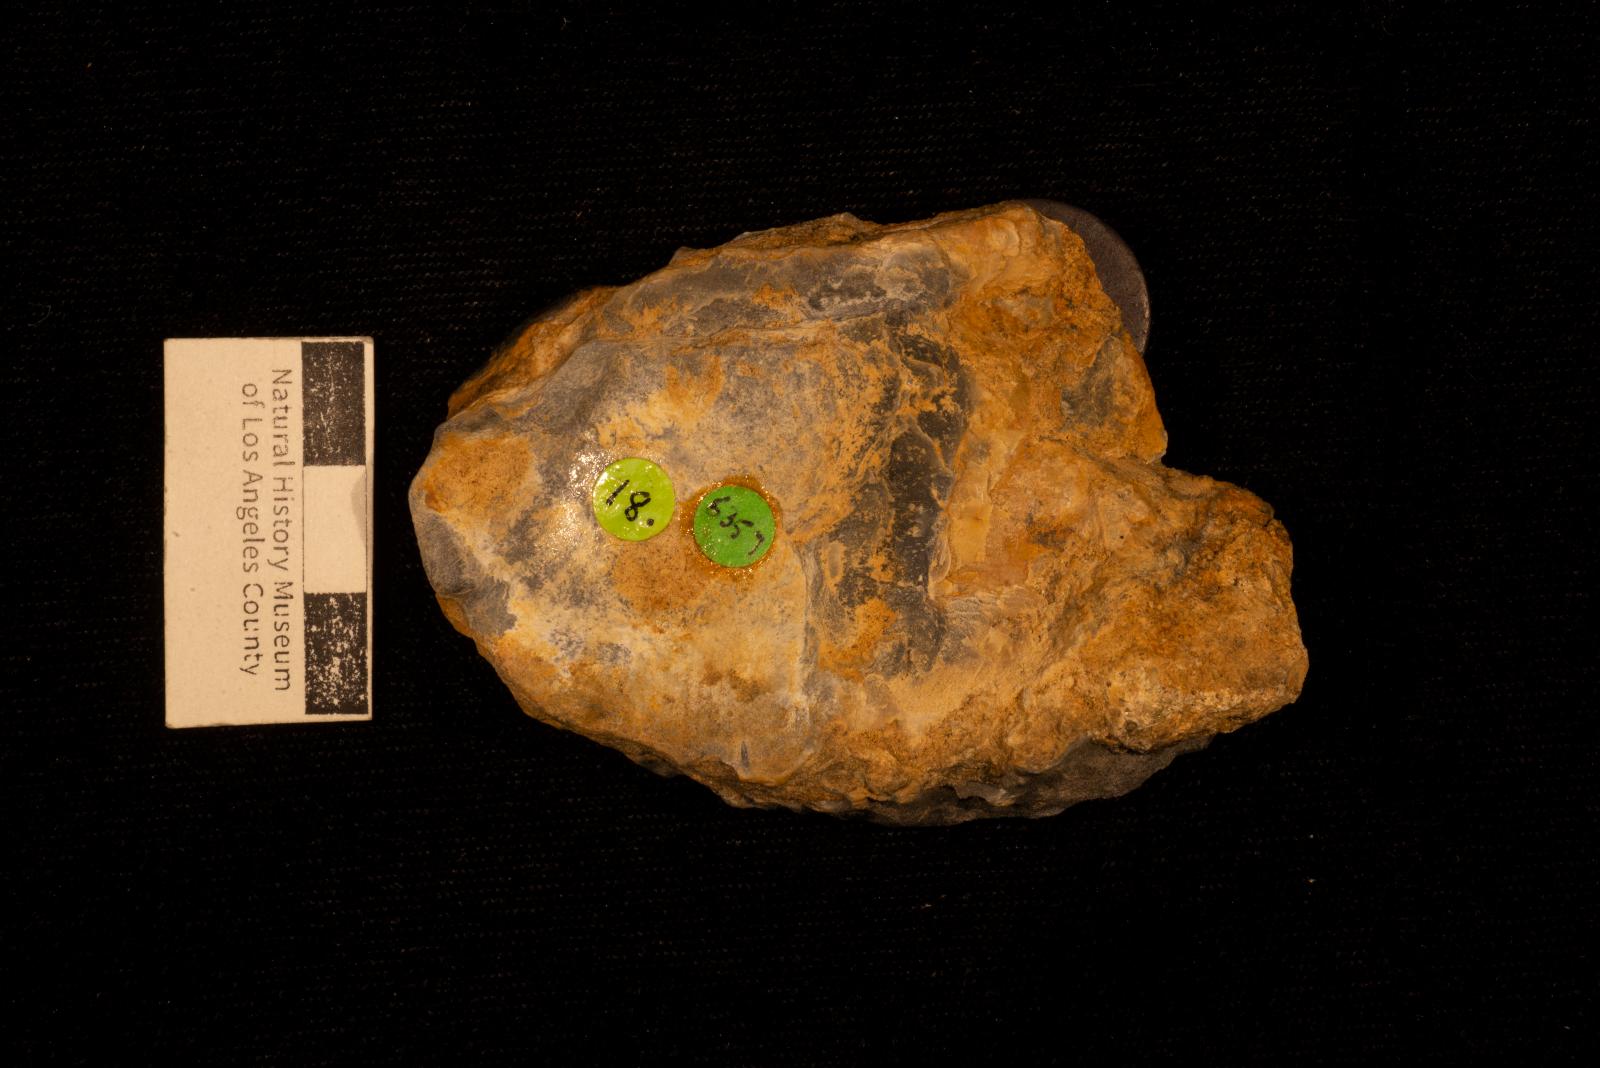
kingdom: Animalia
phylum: Mollusca
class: Bivalvia
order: Ostreida
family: Ostreidae
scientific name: Ostreidae
